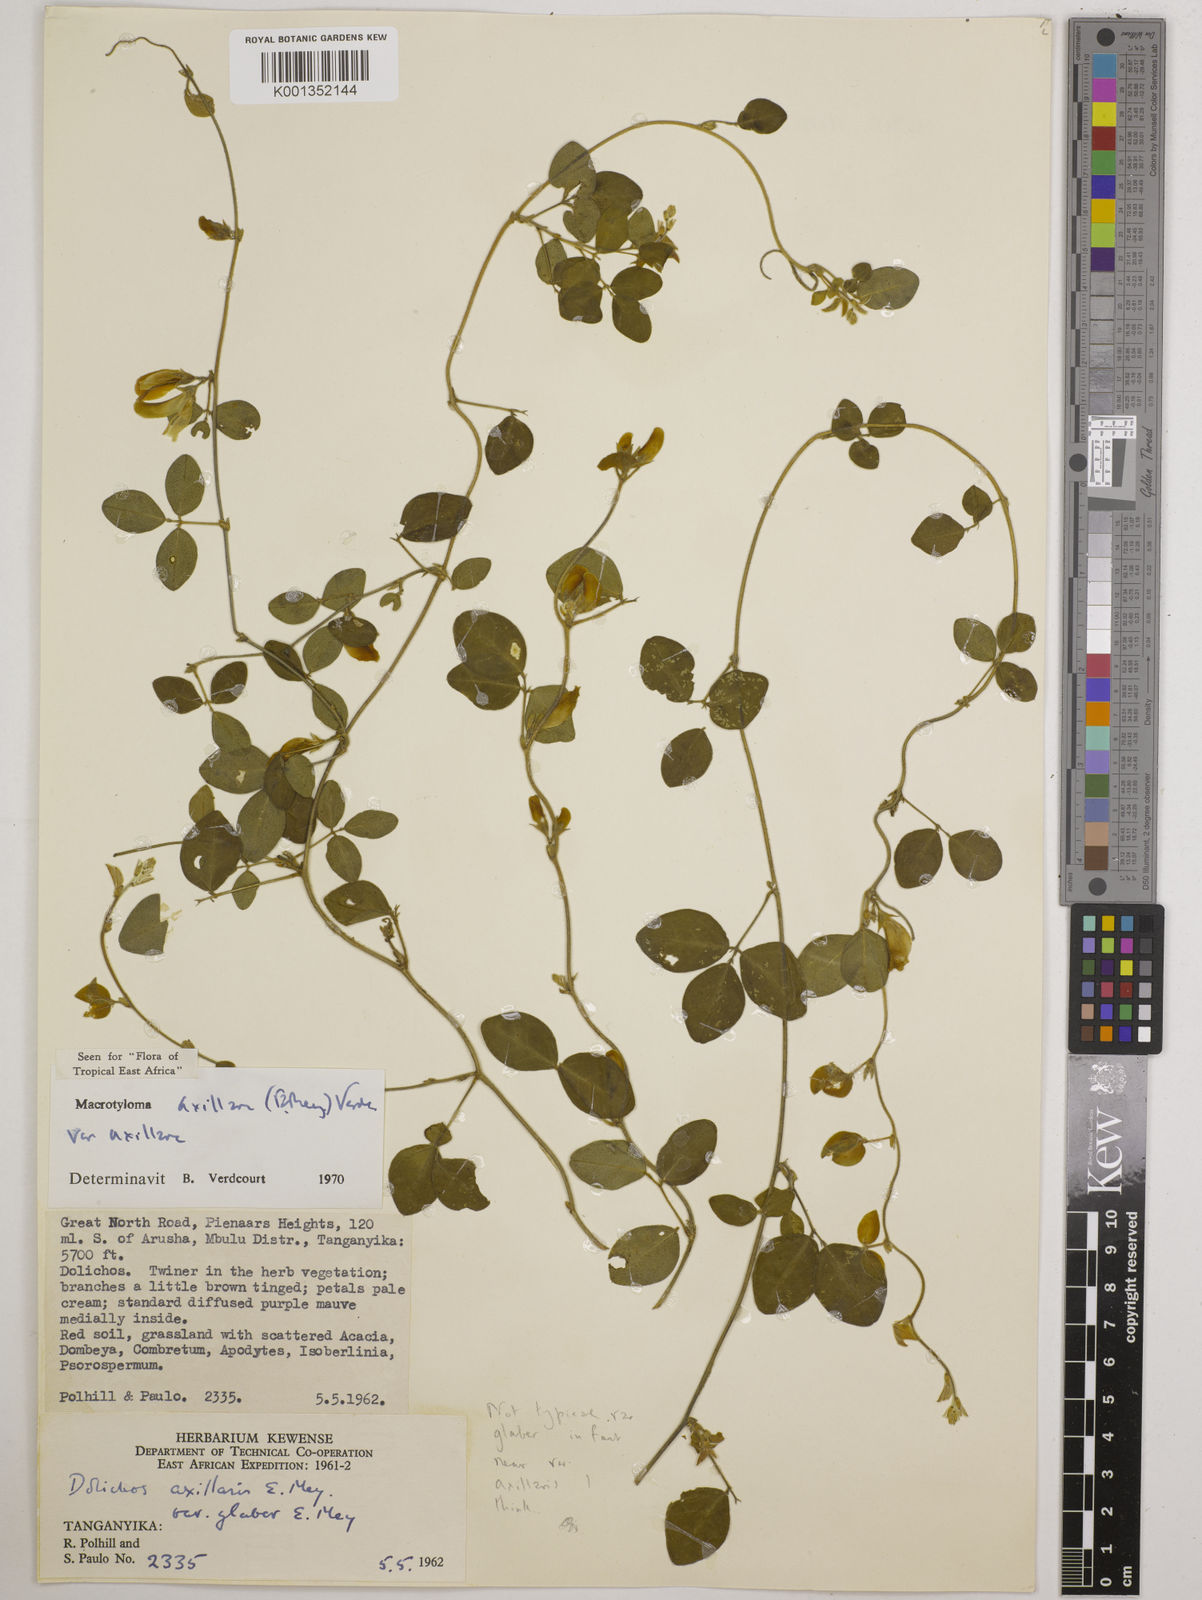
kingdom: Plantae
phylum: Tracheophyta
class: Magnoliopsida
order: Fabales
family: Fabaceae
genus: Macrotyloma
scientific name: Macrotyloma axillare
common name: Perennial horsegram
